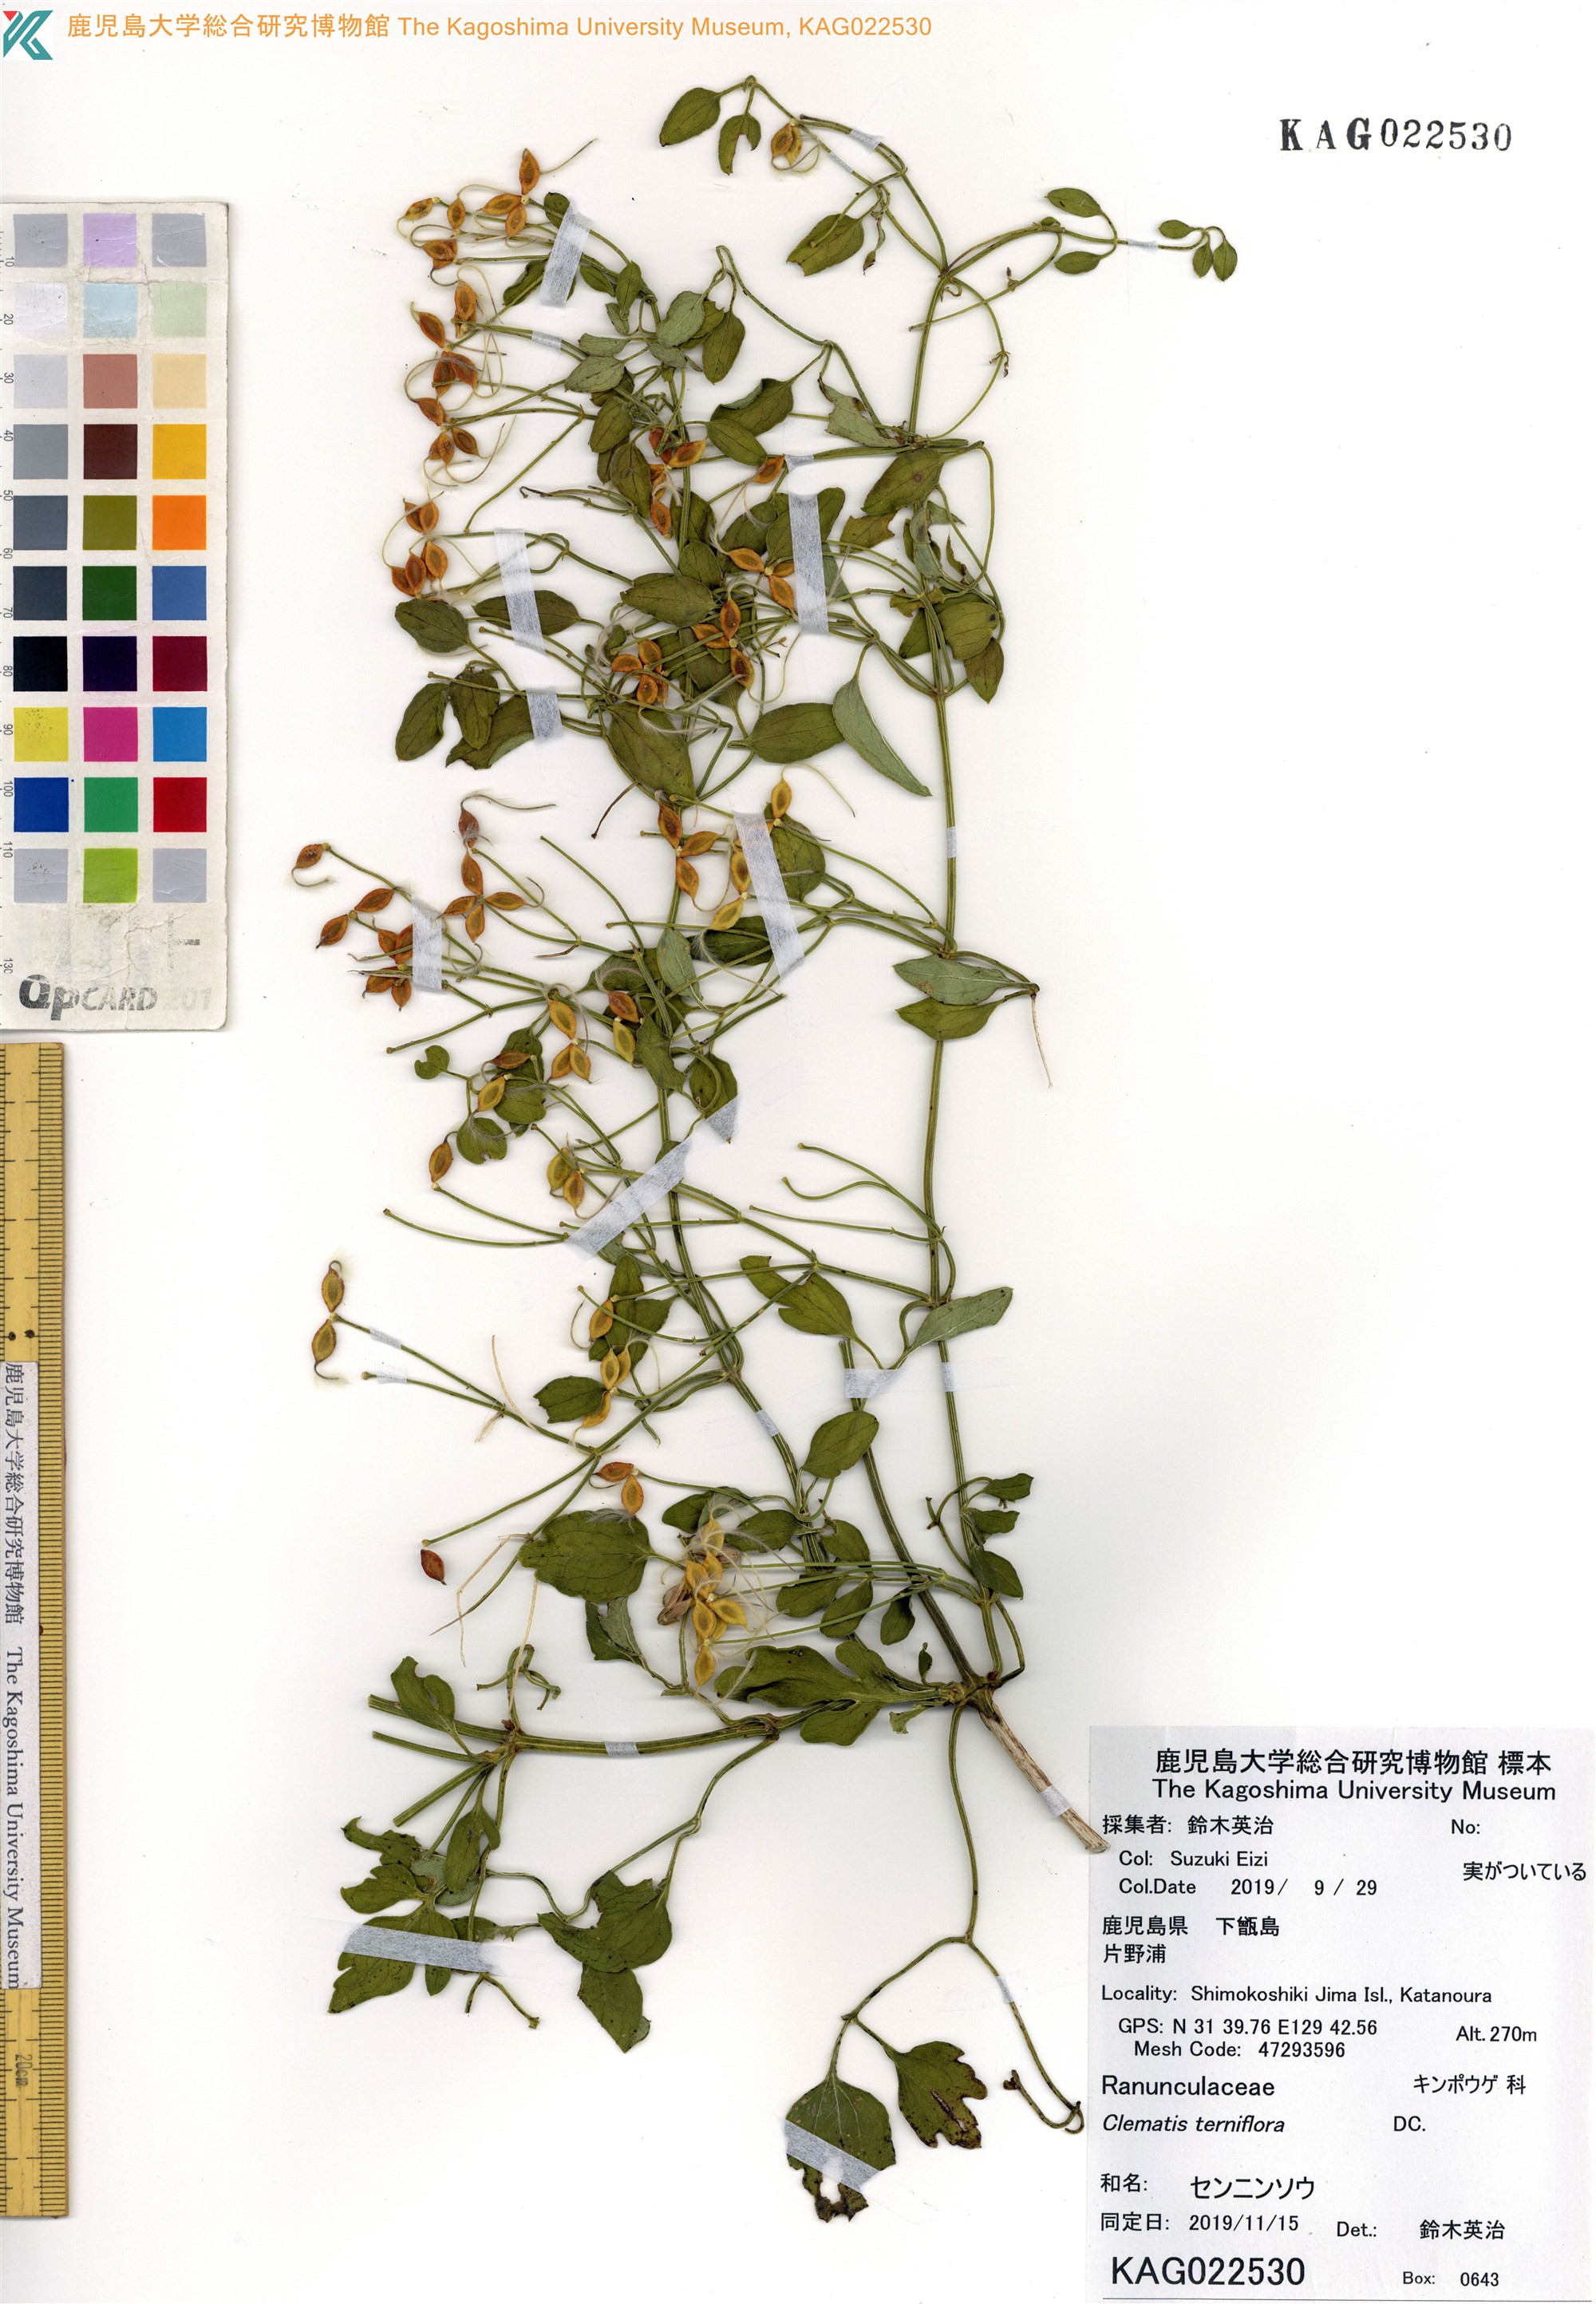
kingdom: Plantae
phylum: Tracheophyta
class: Magnoliopsida
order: Ranunculales
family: Ranunculaceae
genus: Clematis
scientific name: Clematis terniflora
